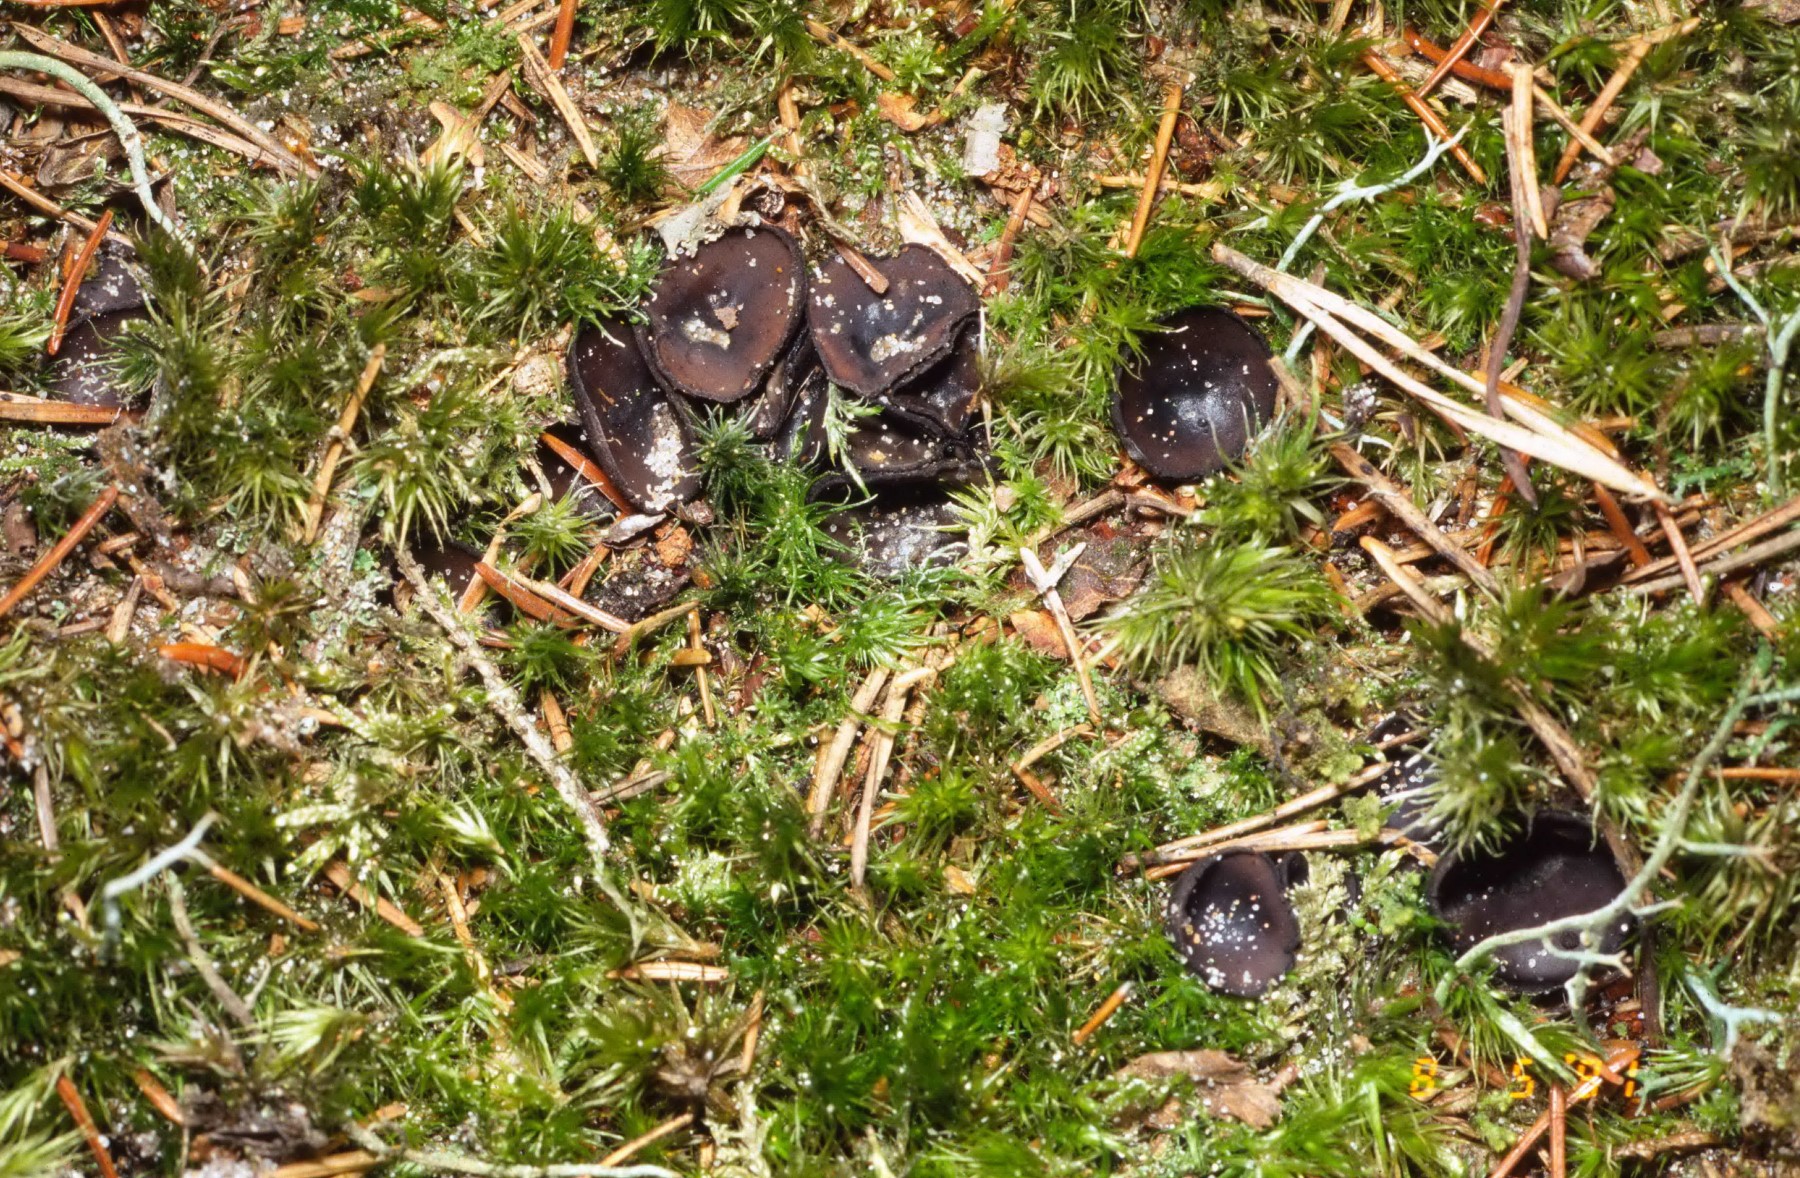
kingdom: Fungi
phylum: Ascomycota
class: Pezizomycetes
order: Pezizales
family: Sarcosomataceae
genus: Pseudoplectania
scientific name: Pseudoplectania nigrella
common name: almindelig sortbæger
